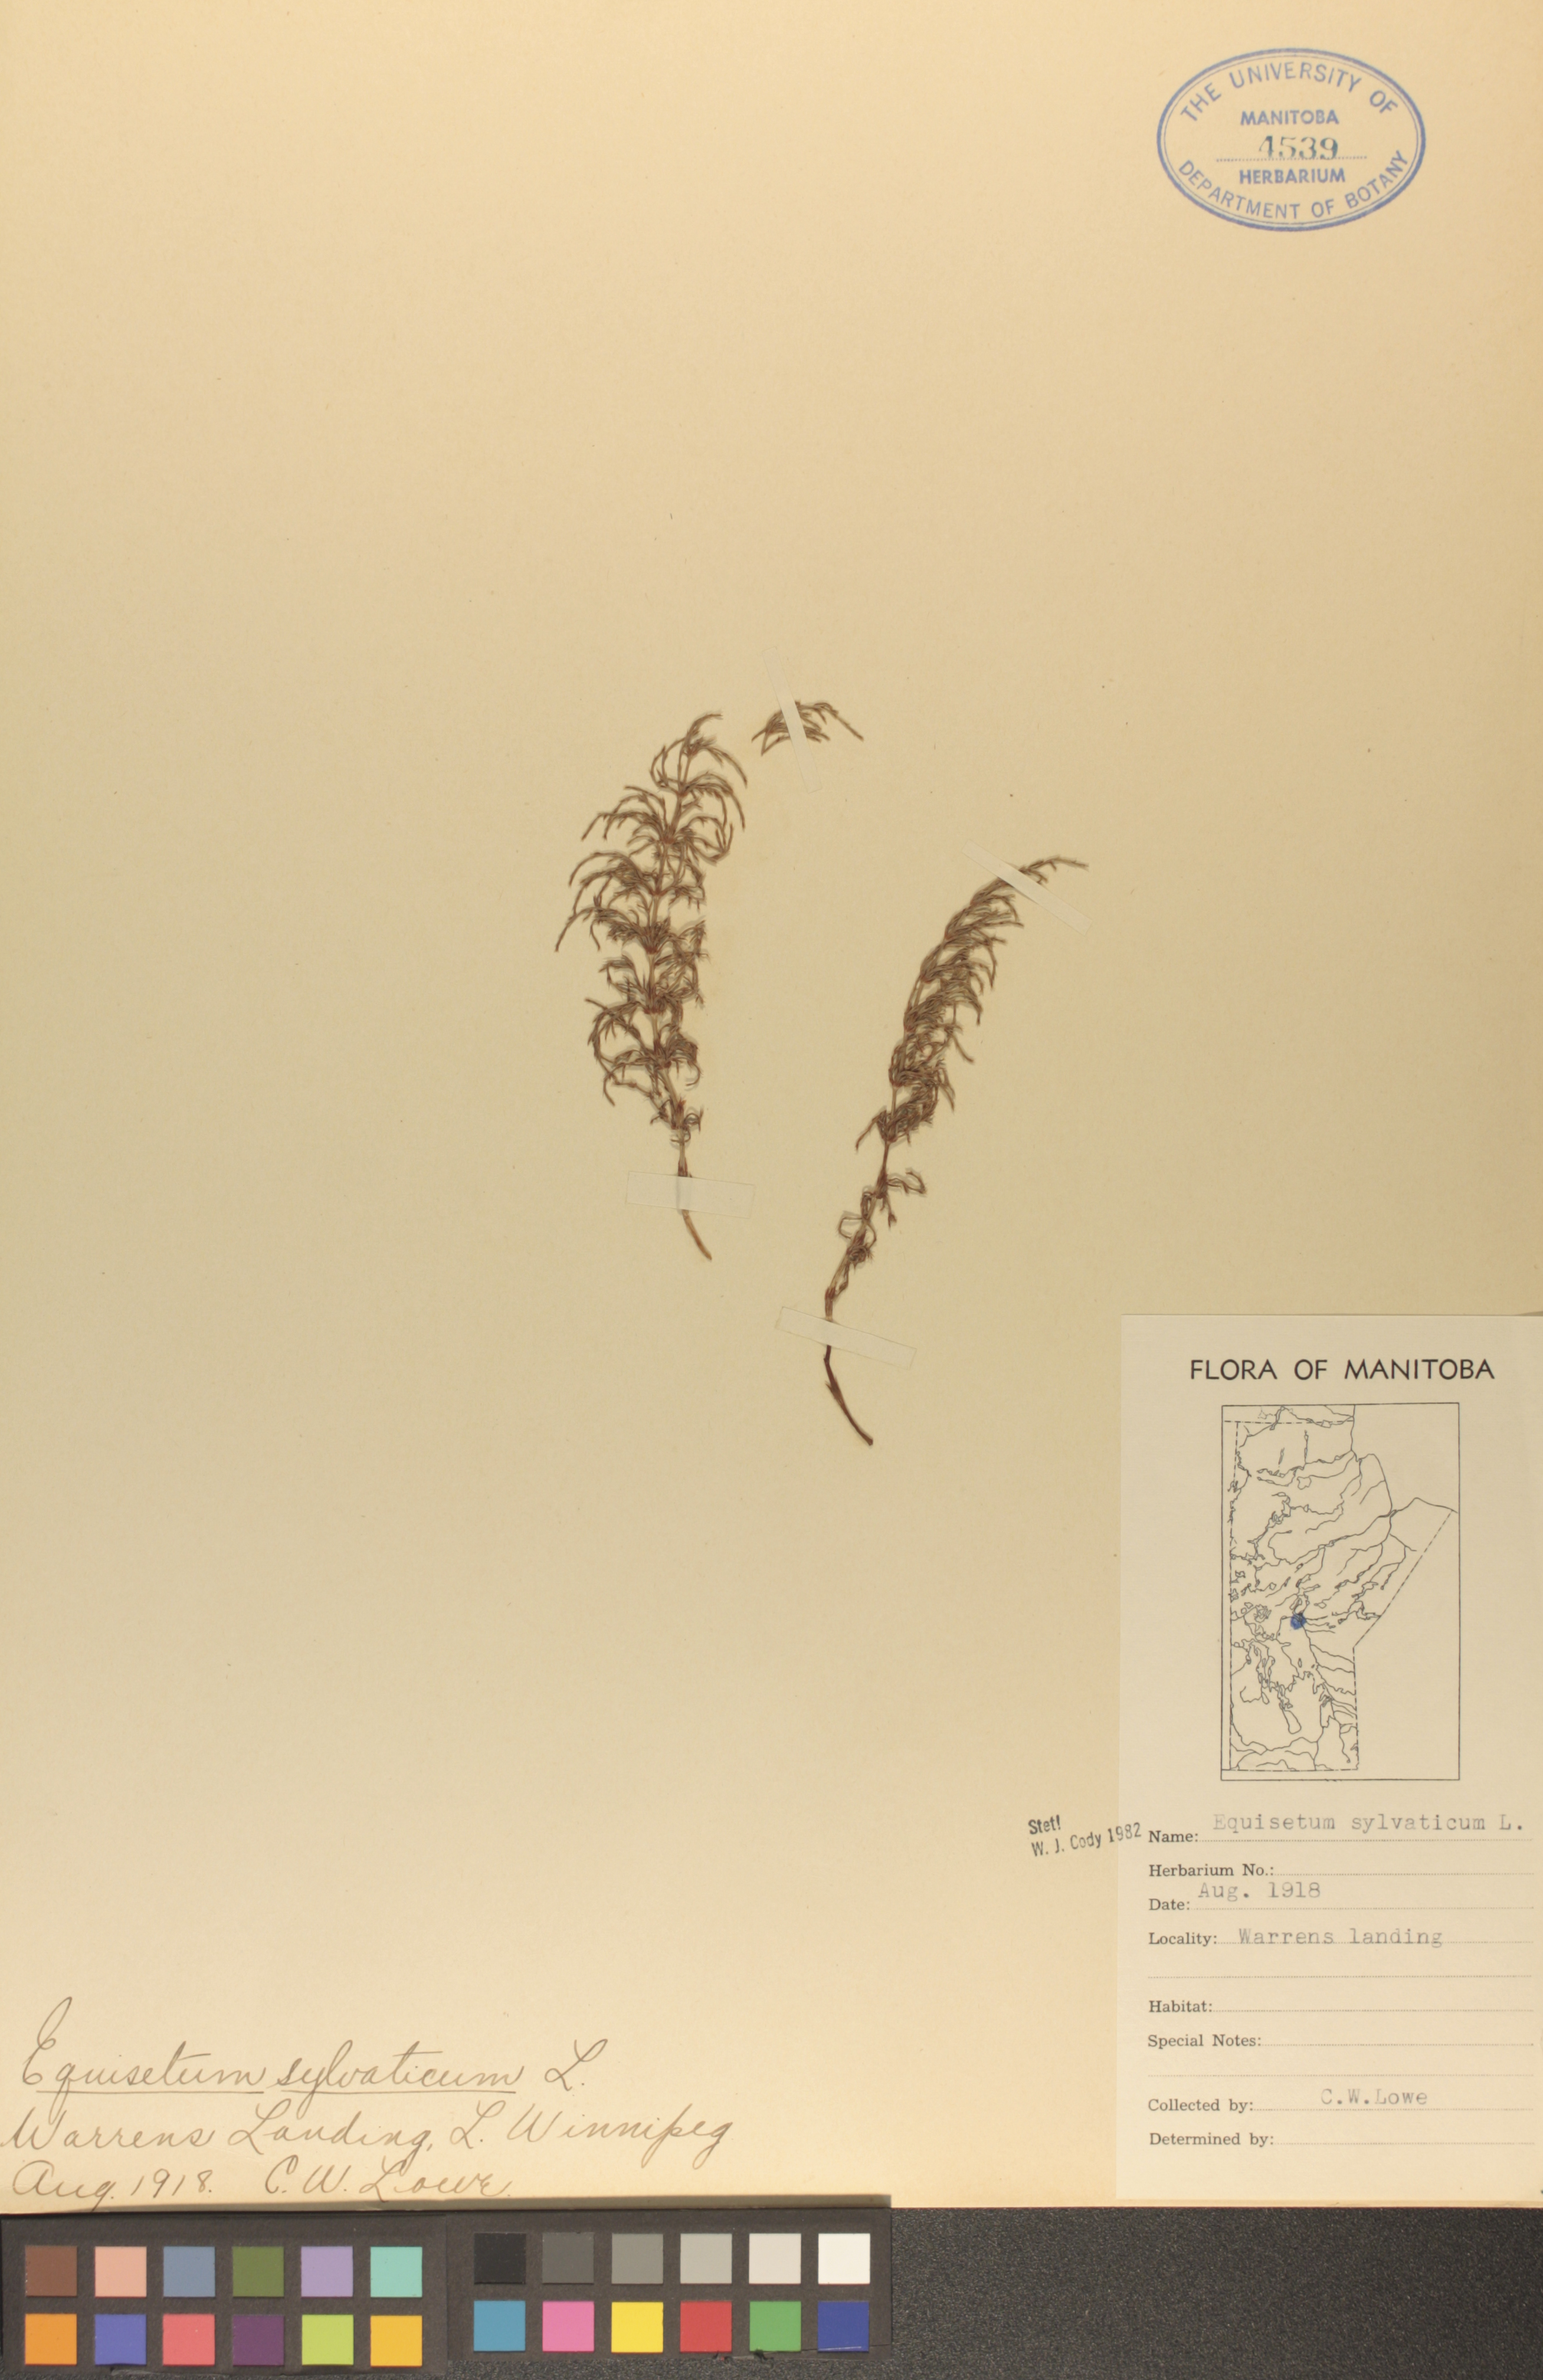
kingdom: Plantae
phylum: Tracheophyta
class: Polypodiopsida
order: Equisetales
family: Equisetaceae
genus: Equisetum
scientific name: Equisetum sylvaticum
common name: Wood horsetail
